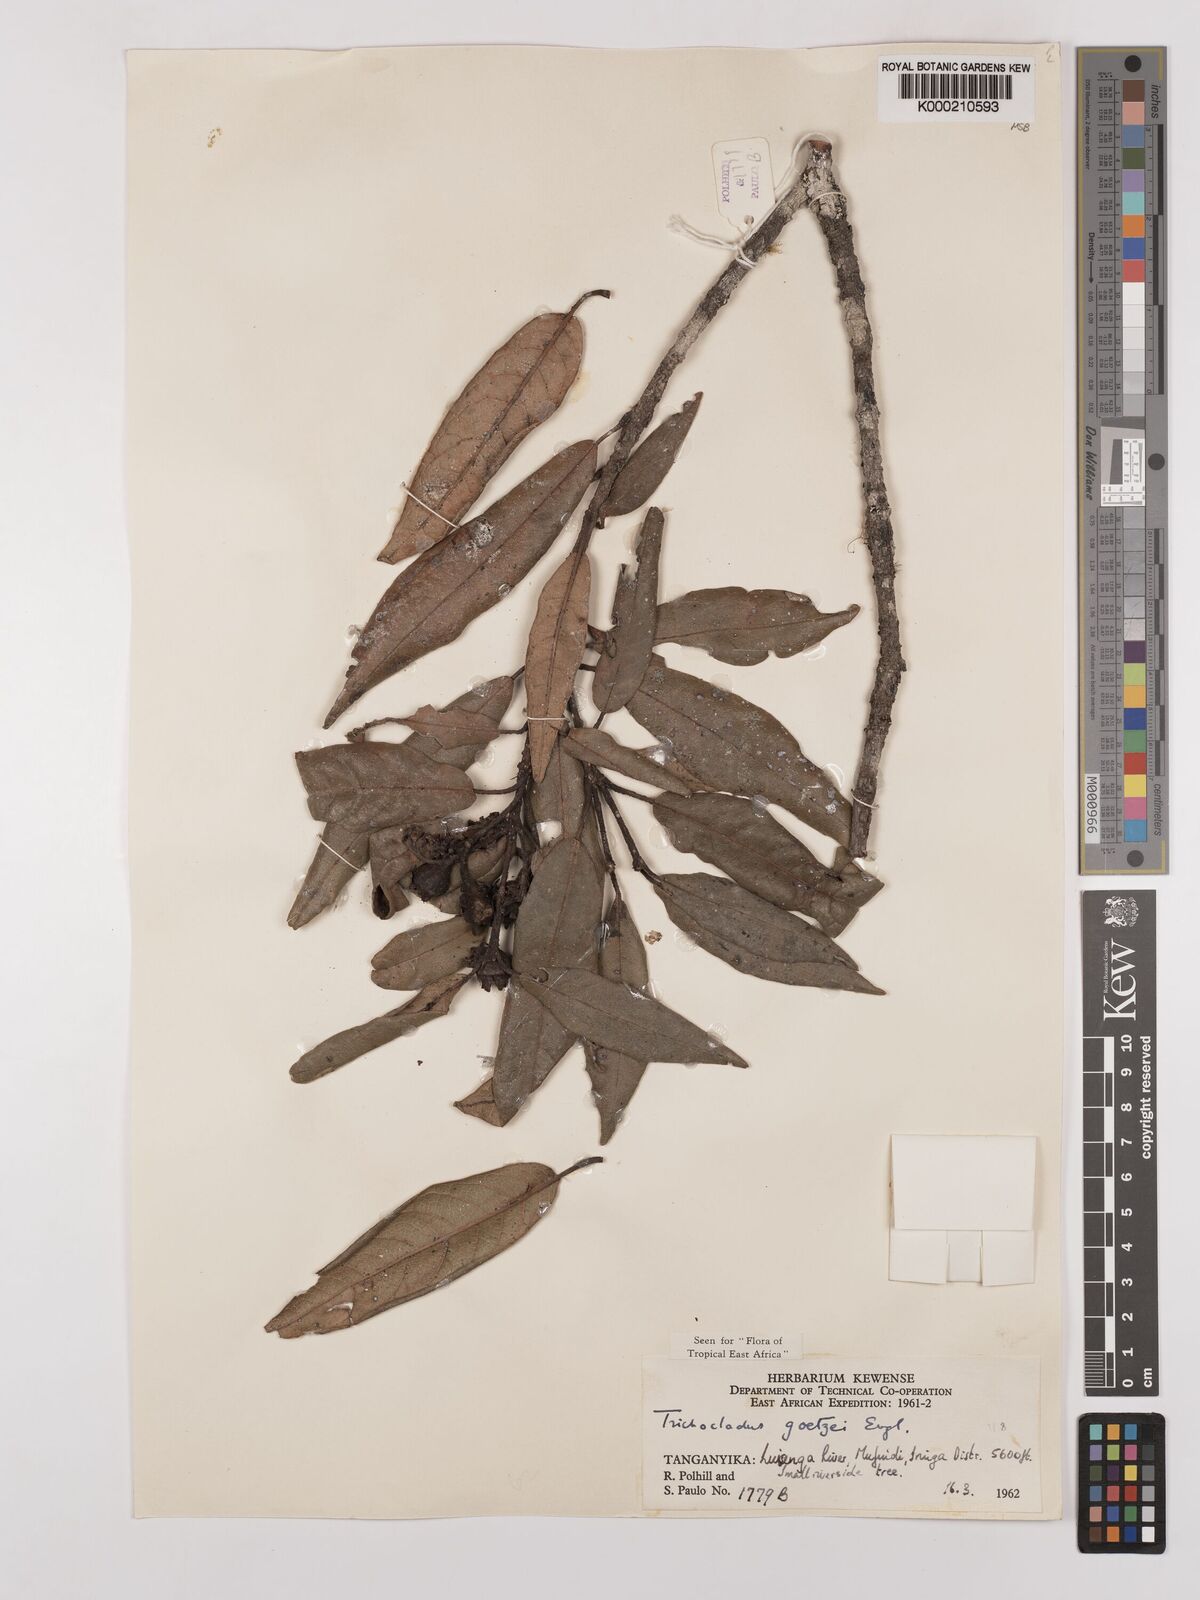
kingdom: Plantae
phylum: Tracheophyta
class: Magnoliopsida
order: Saxifragales
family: Hamamelidaceae
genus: Trichocladus
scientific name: Trichocladus goetzei
